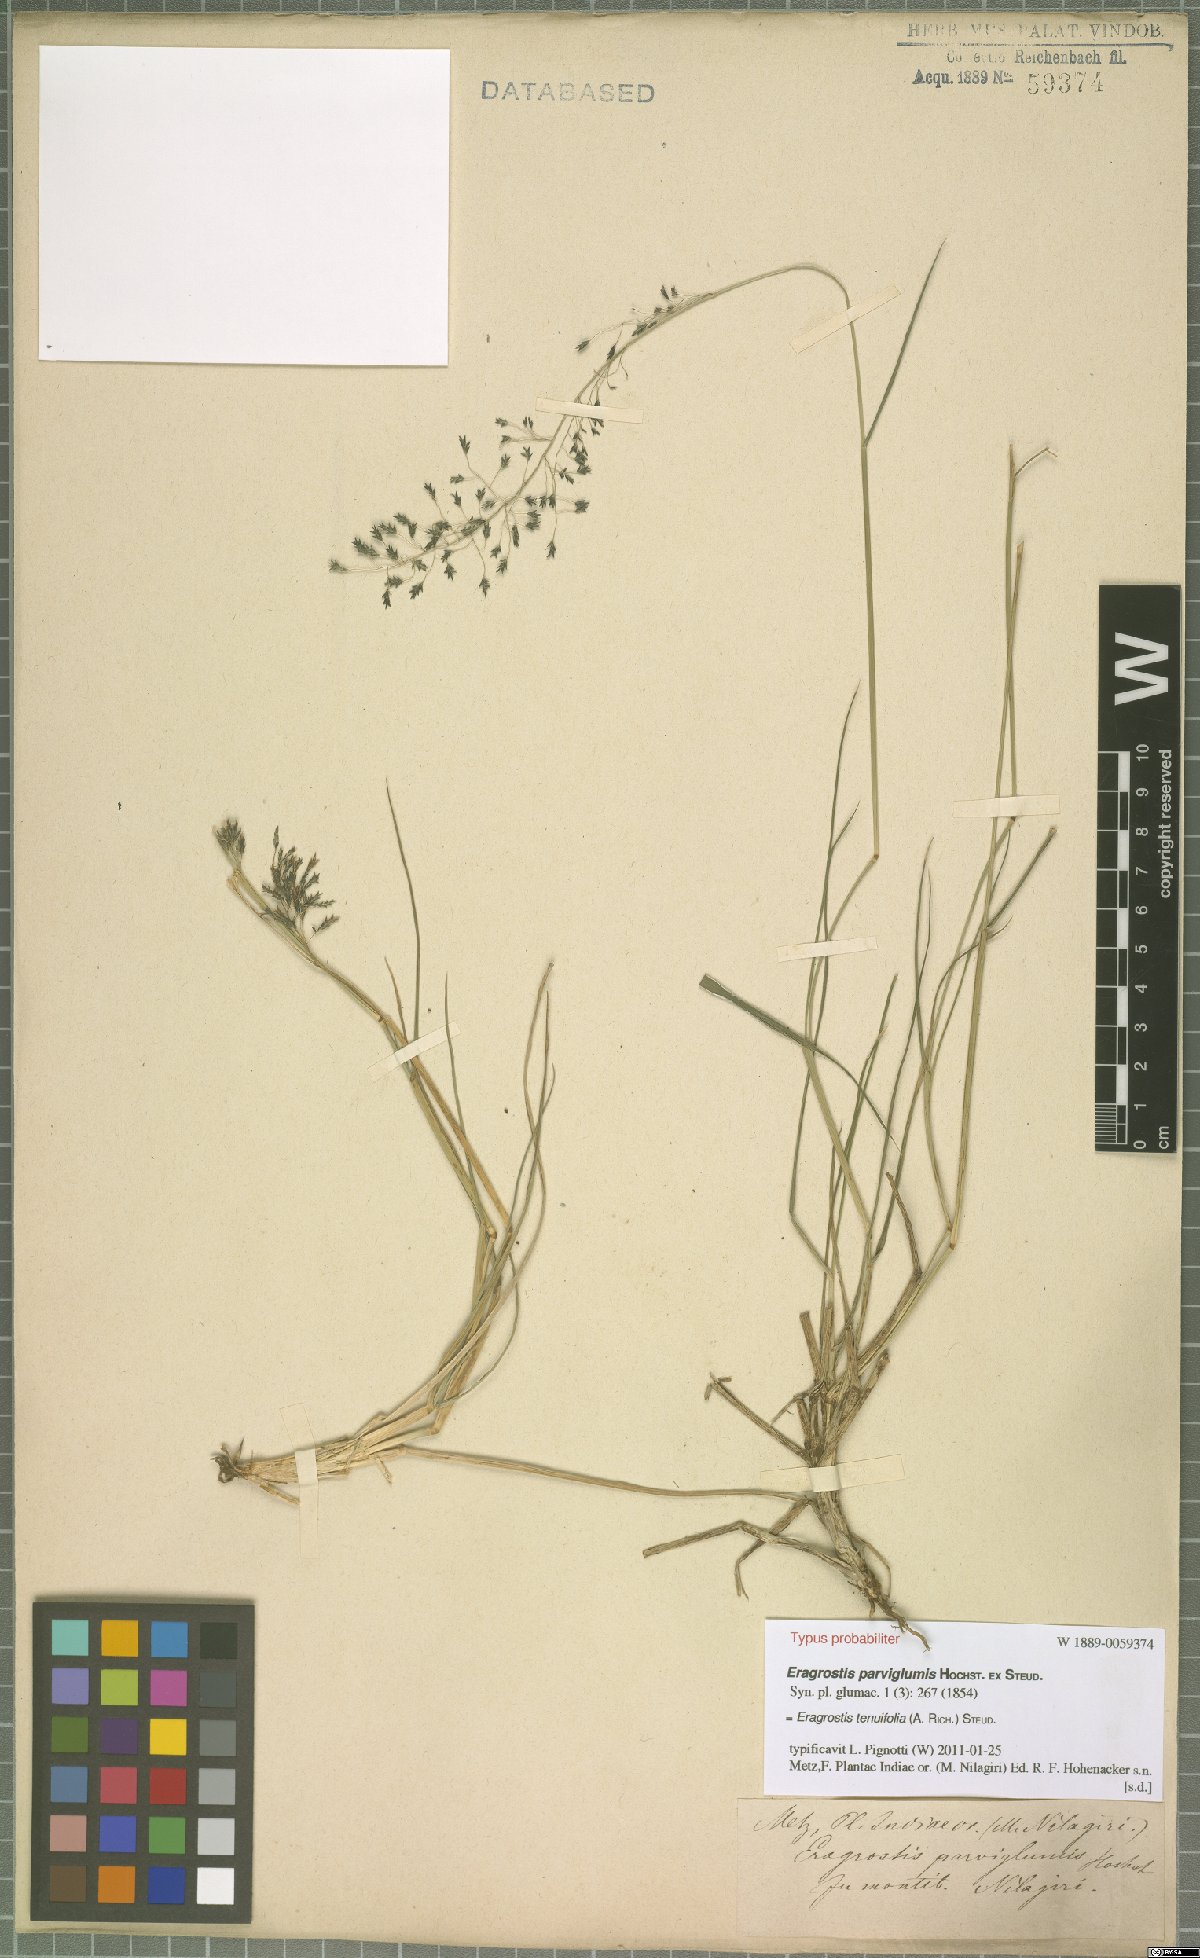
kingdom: Plantae
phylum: Tracheophyta
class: Liliopsida
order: Poales
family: Poaceae
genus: Eragrostis
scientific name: Eragrostis tenuifolia
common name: Elastic grass
